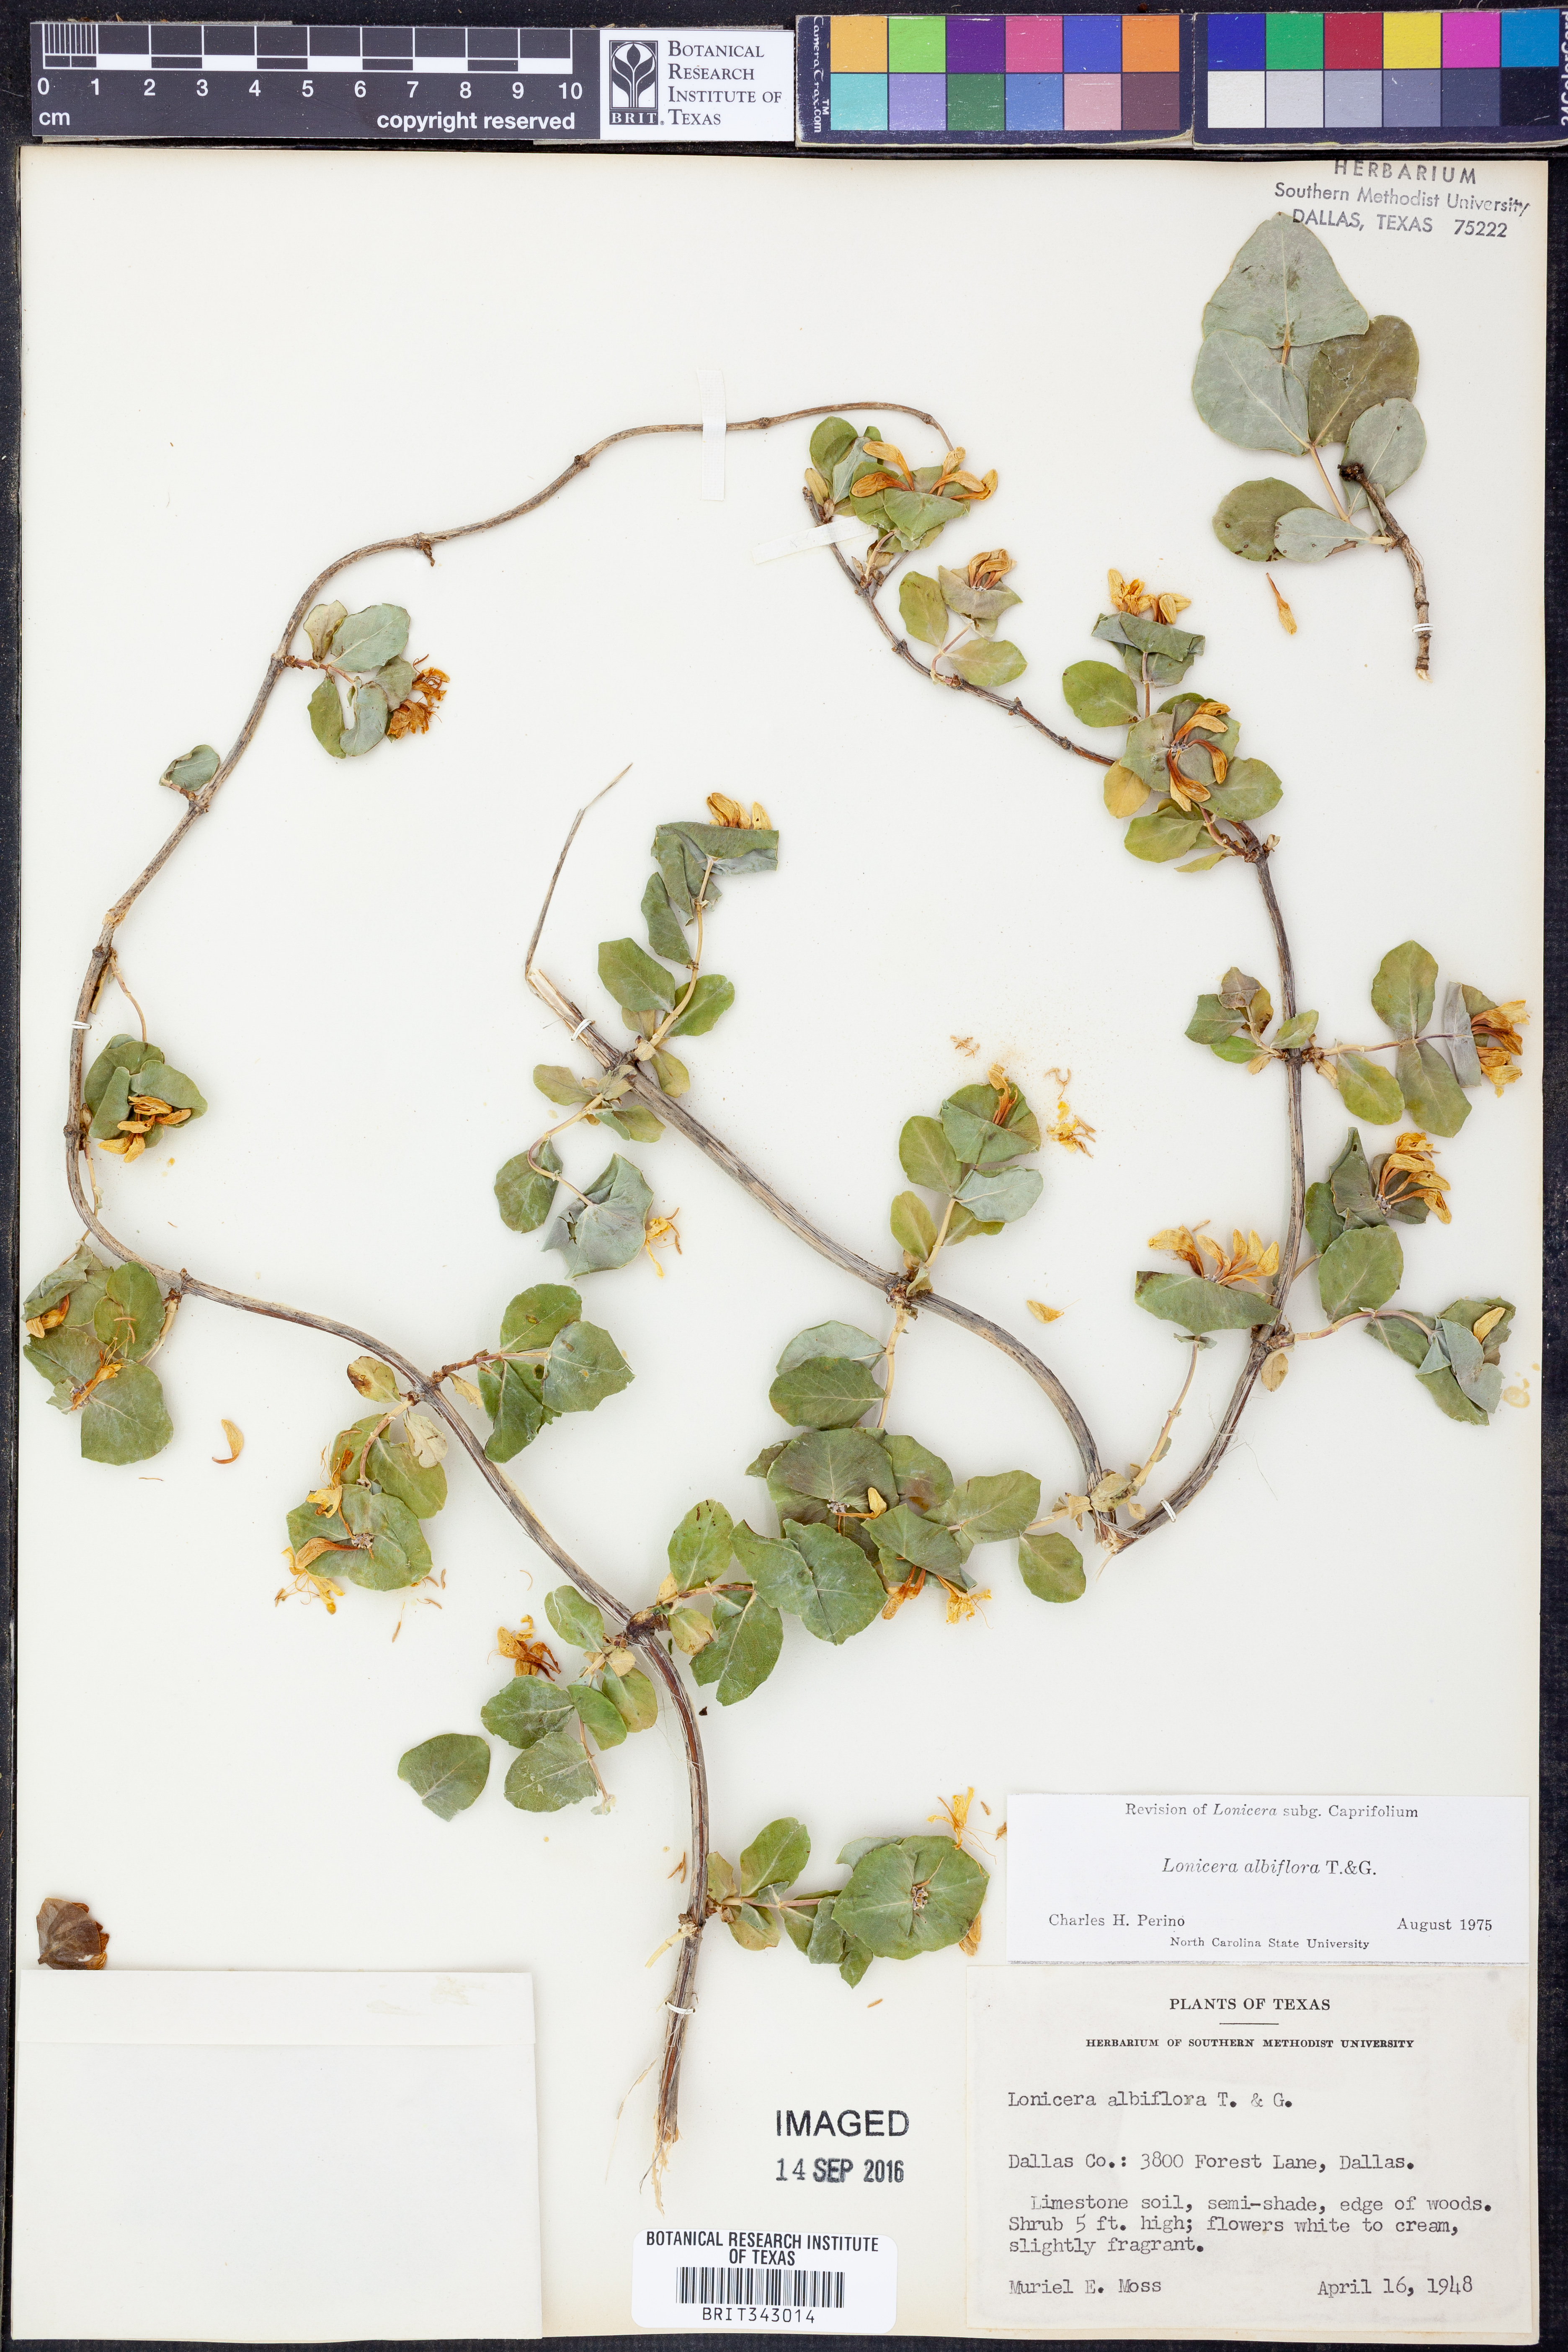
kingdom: Plantae
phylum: Tracheophyta
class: Magnoliopsida
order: Dipsacales
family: Caprifoliaceae
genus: Lonicera
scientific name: Lonicera albiflora
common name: White honeysuckle
